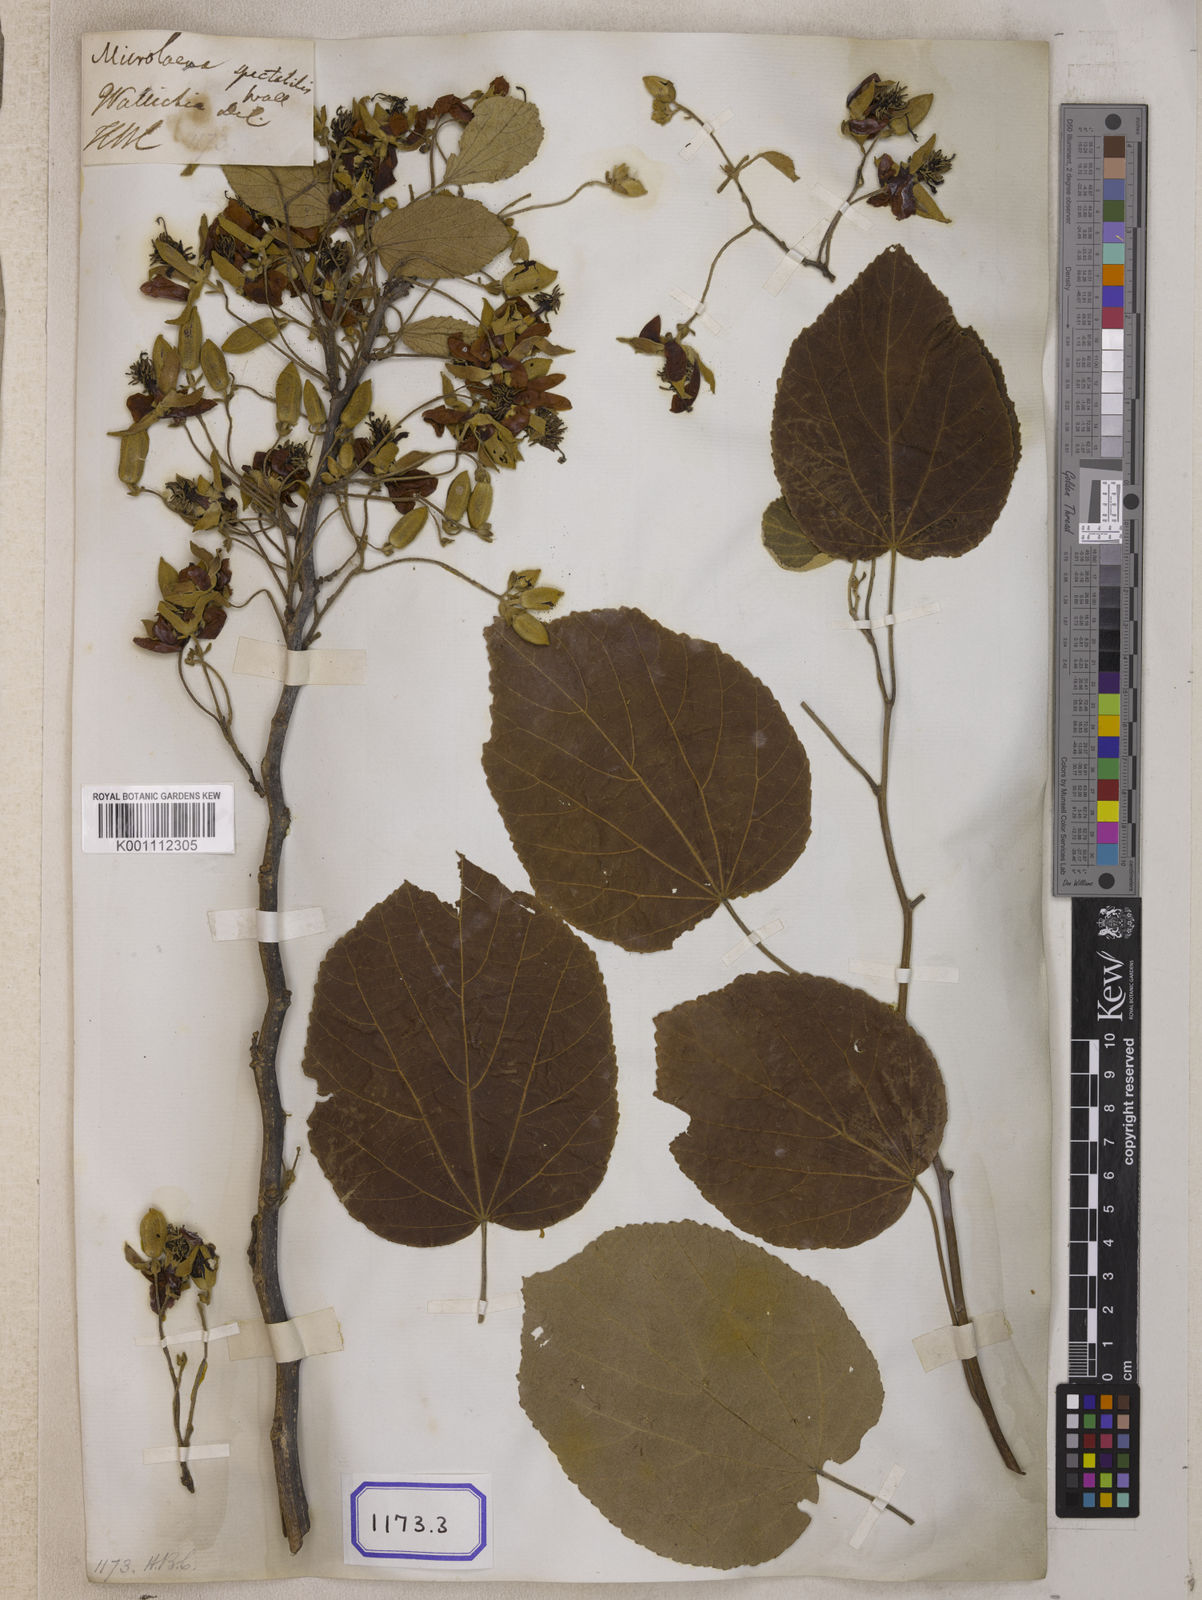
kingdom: Plantae
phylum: Tracheophyta
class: Liliopsida
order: Poales
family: Poaceae
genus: Microlaena
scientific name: Microlaena
